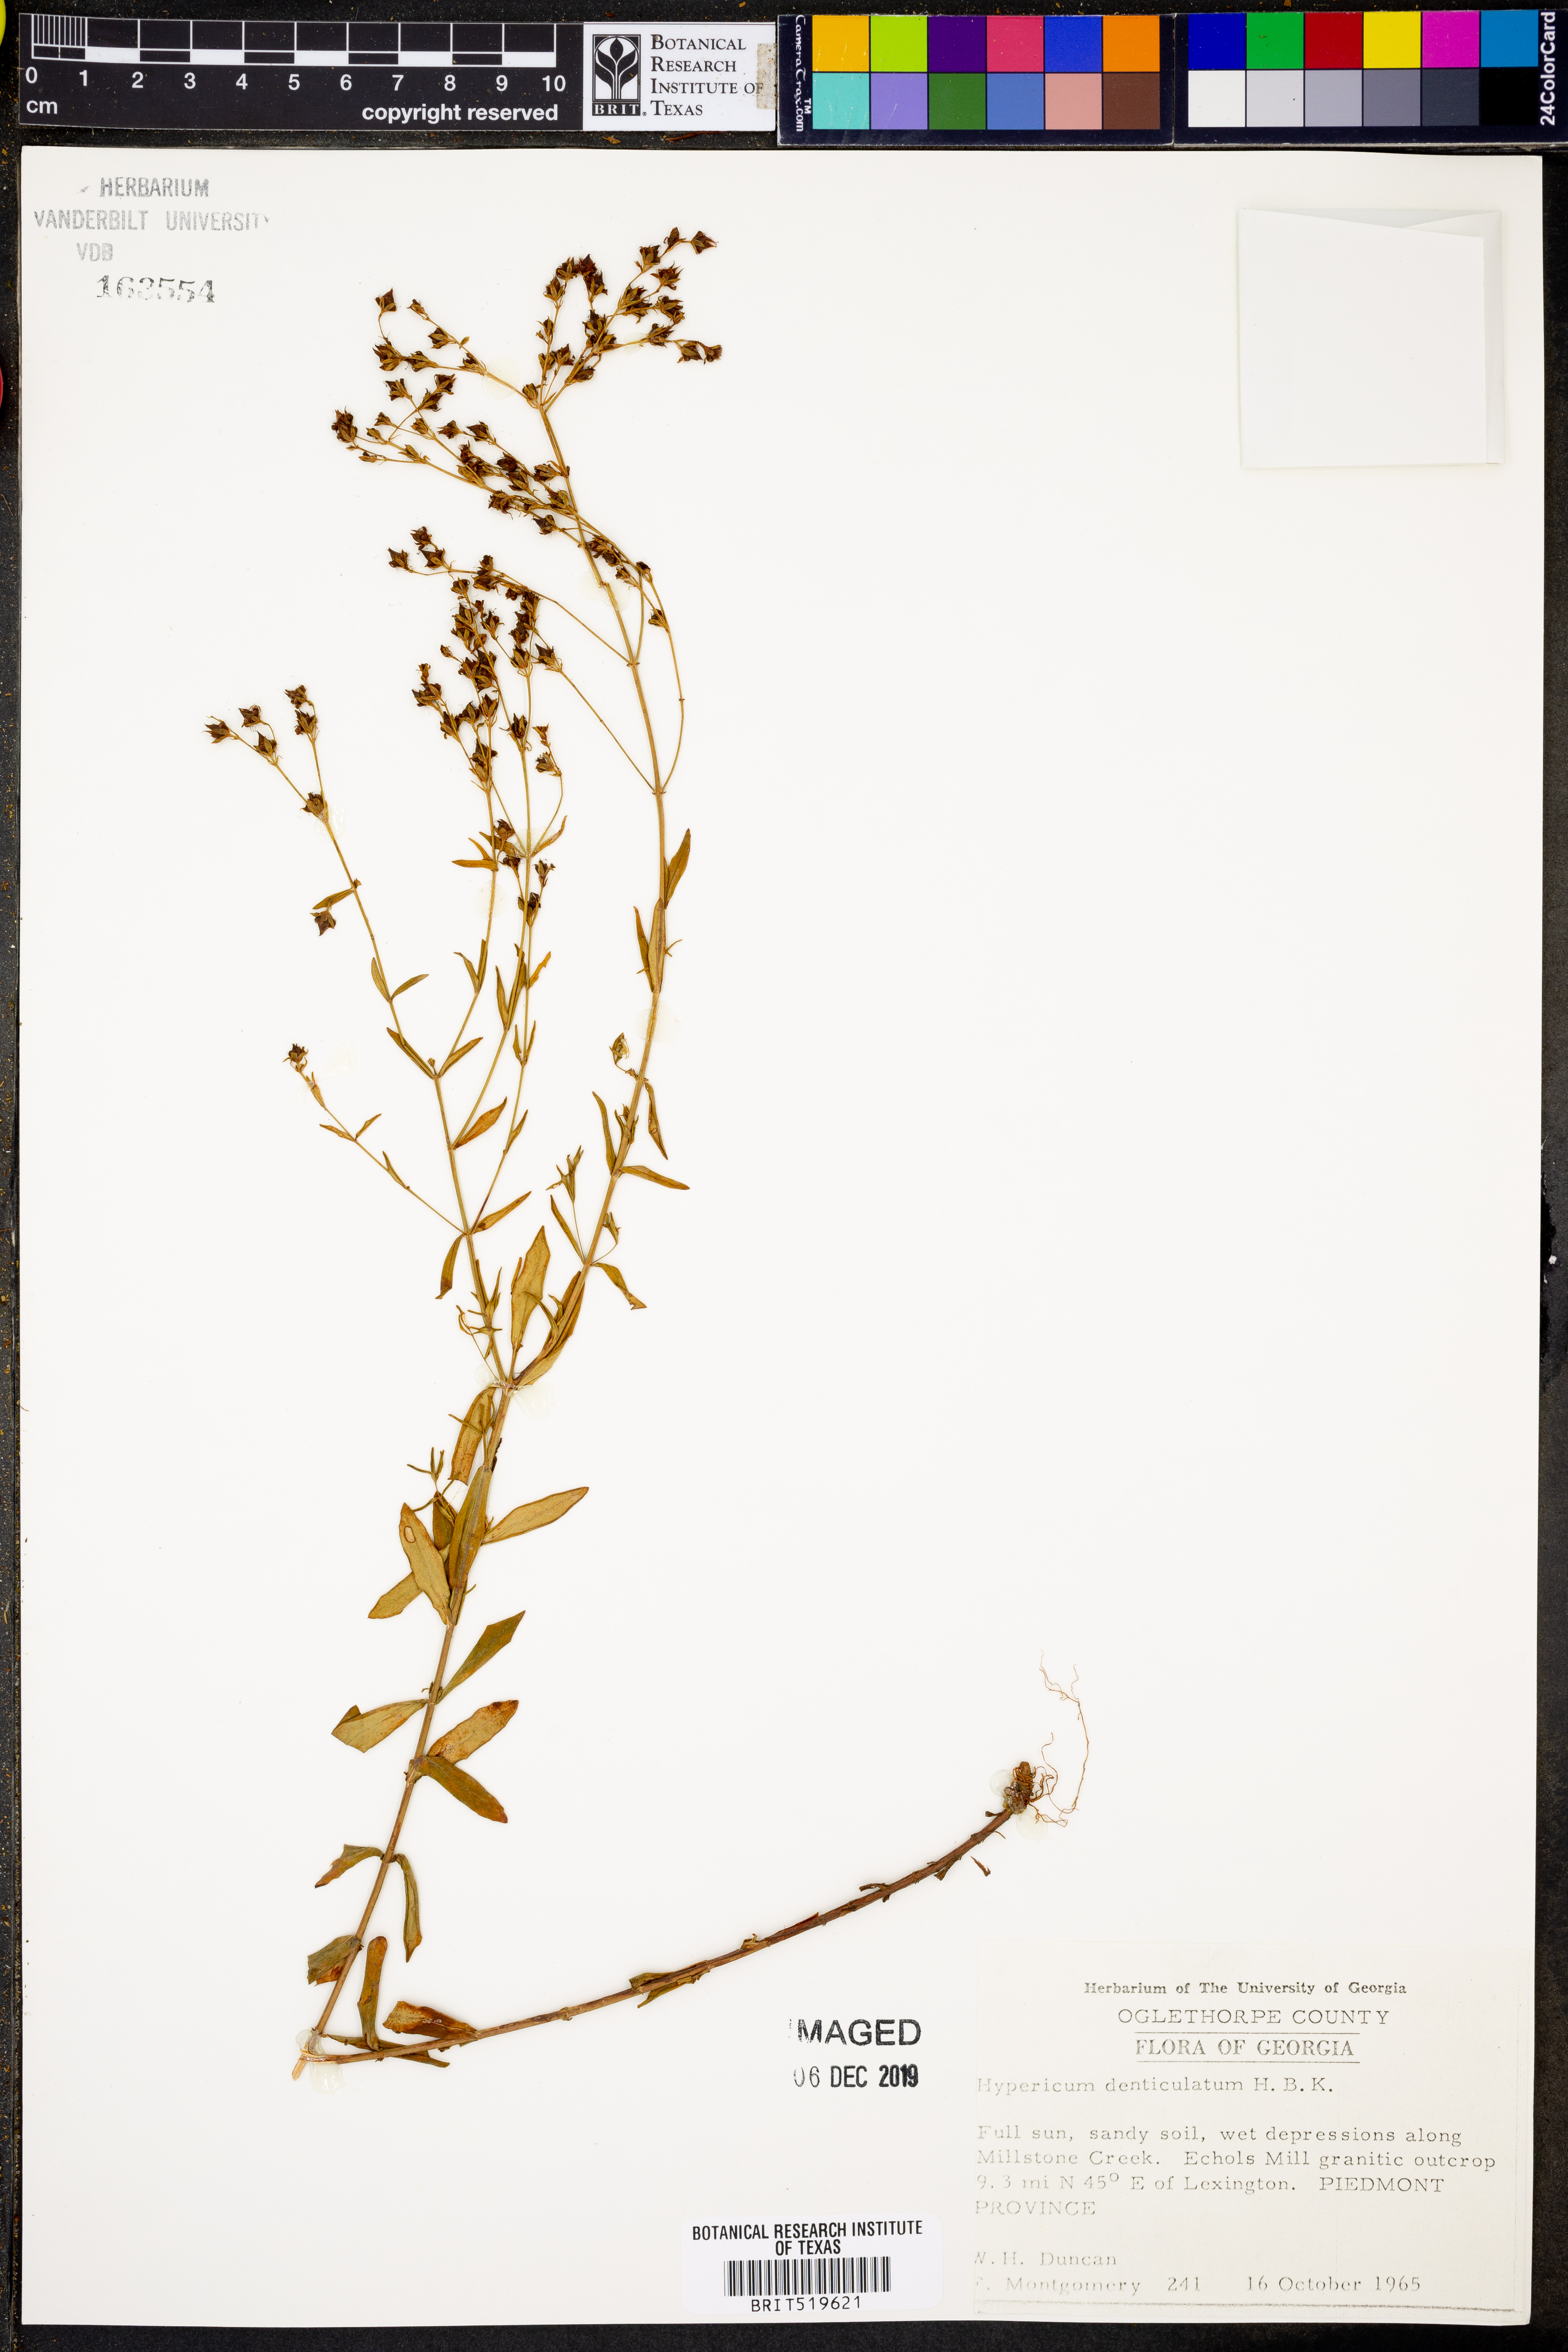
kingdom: Plantae
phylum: Tracheophyta
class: Magnoliopsida
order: Malpighiales
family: Hypericaceae
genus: Hypericum
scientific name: Hypericum denticulatum
